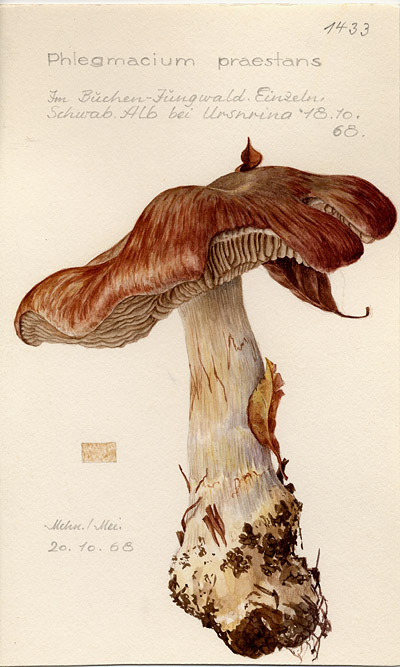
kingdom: Fungi
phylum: Basidiomycota
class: Agaricomycetes
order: Agaricales
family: Cortinariaceae
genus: Cortinarius
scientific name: Cortinarius praestans
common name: Goliath webcap
